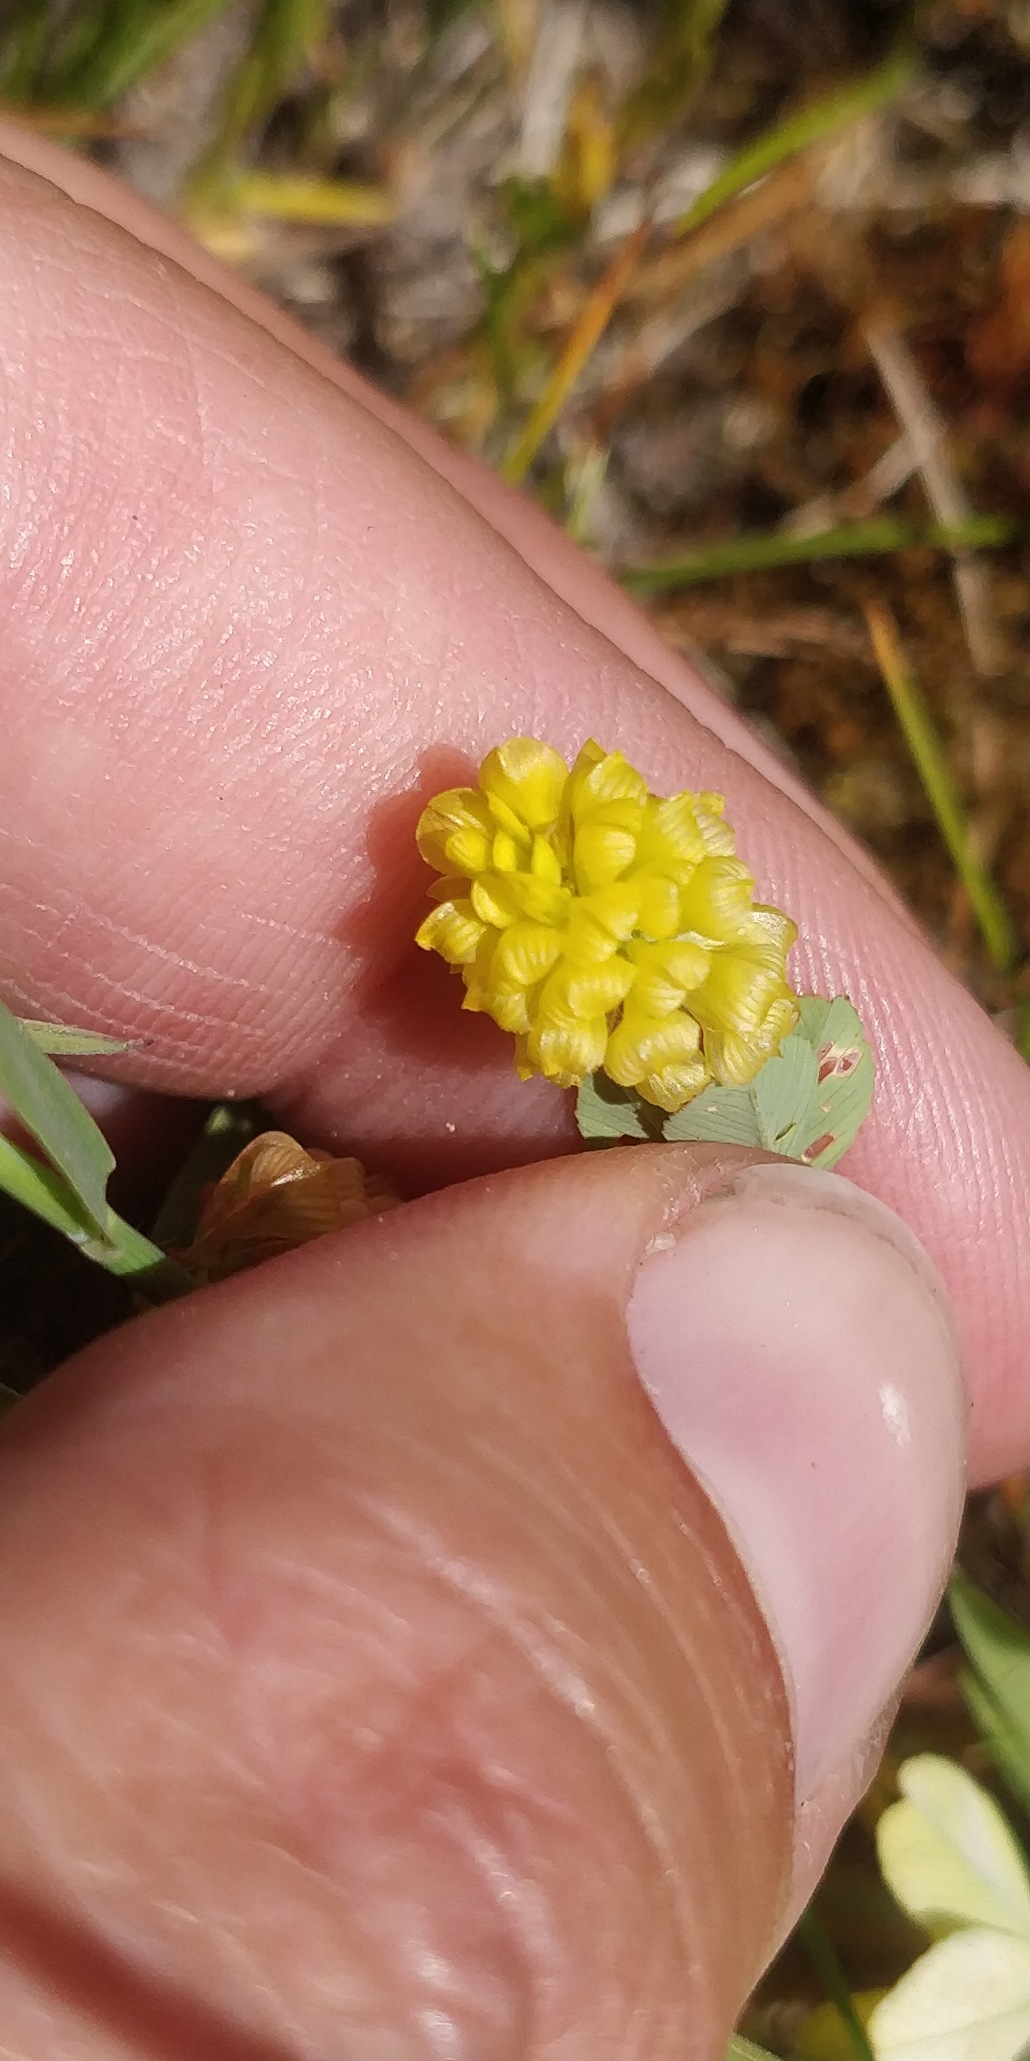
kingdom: Plantae
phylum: Tracheophyta
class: Magnoliopsida
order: Fabales
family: Fabaceae
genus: Trifolium
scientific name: Trifolium campestre
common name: Gul kløver
